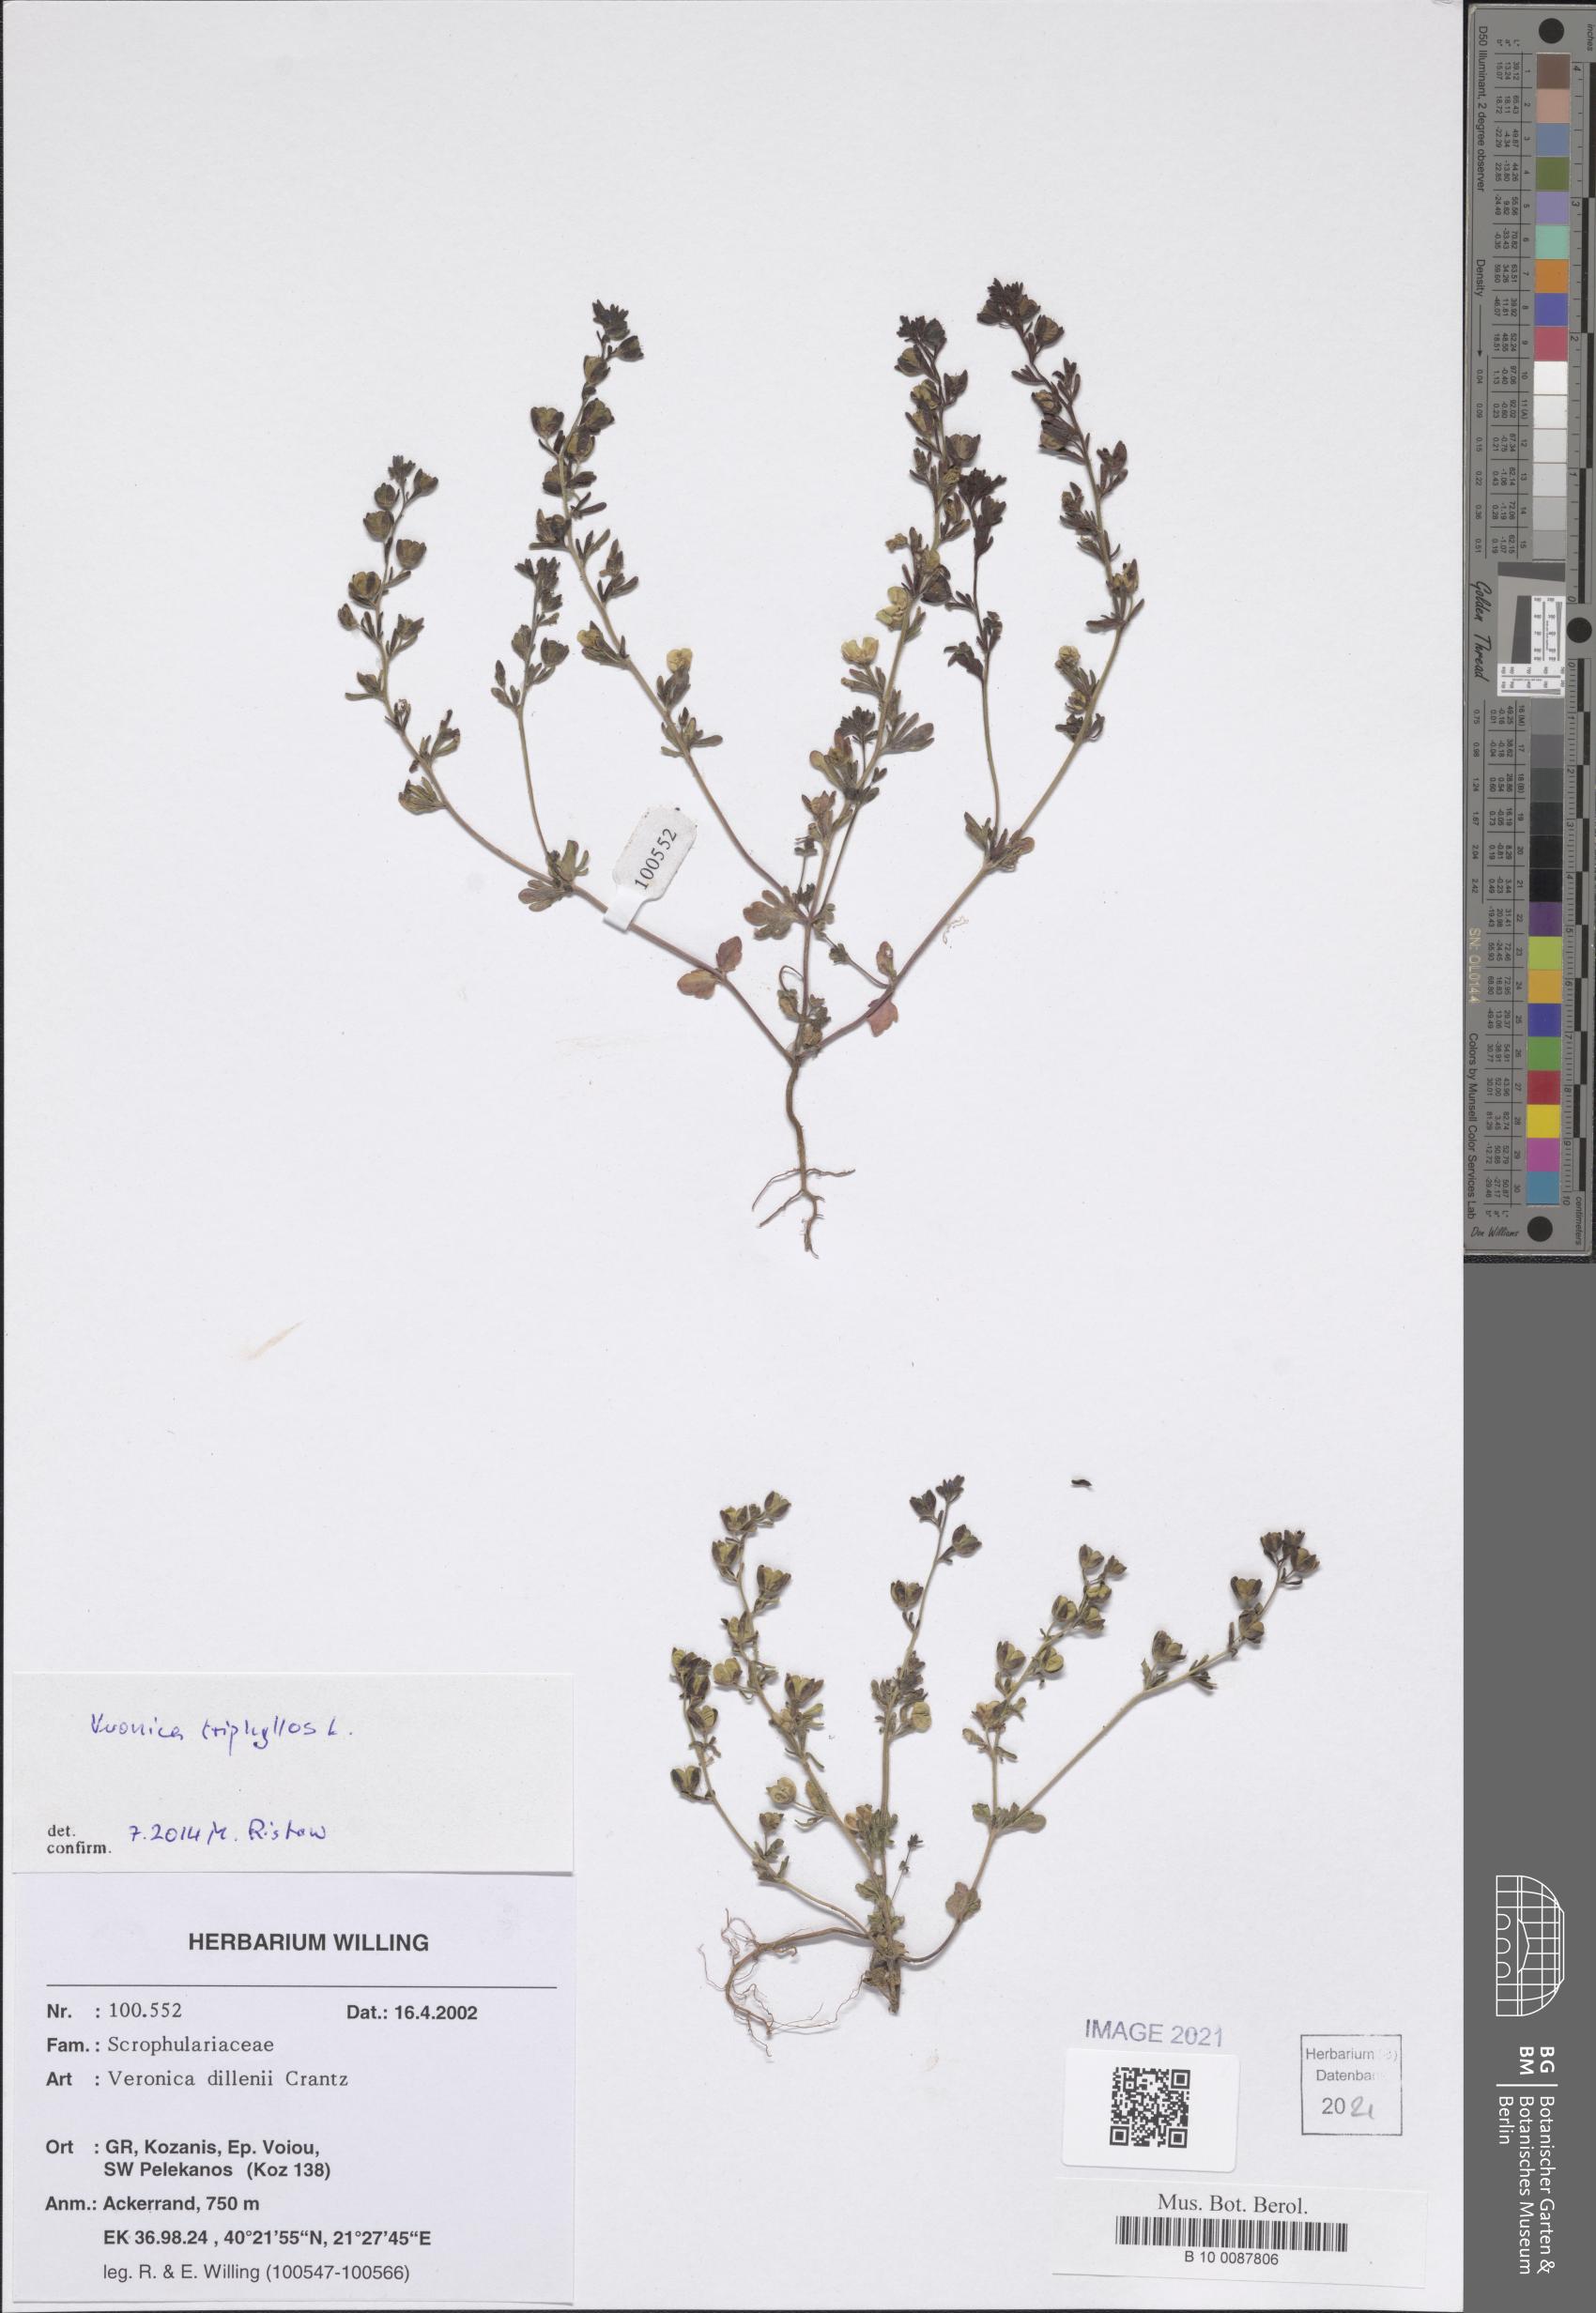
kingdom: Plantae
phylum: Tracheophyta
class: Magnoliopsida
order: Lamiales
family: Plantaginaceae
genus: Veronica
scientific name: Veronica triphyllos
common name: Fingered speedwell
